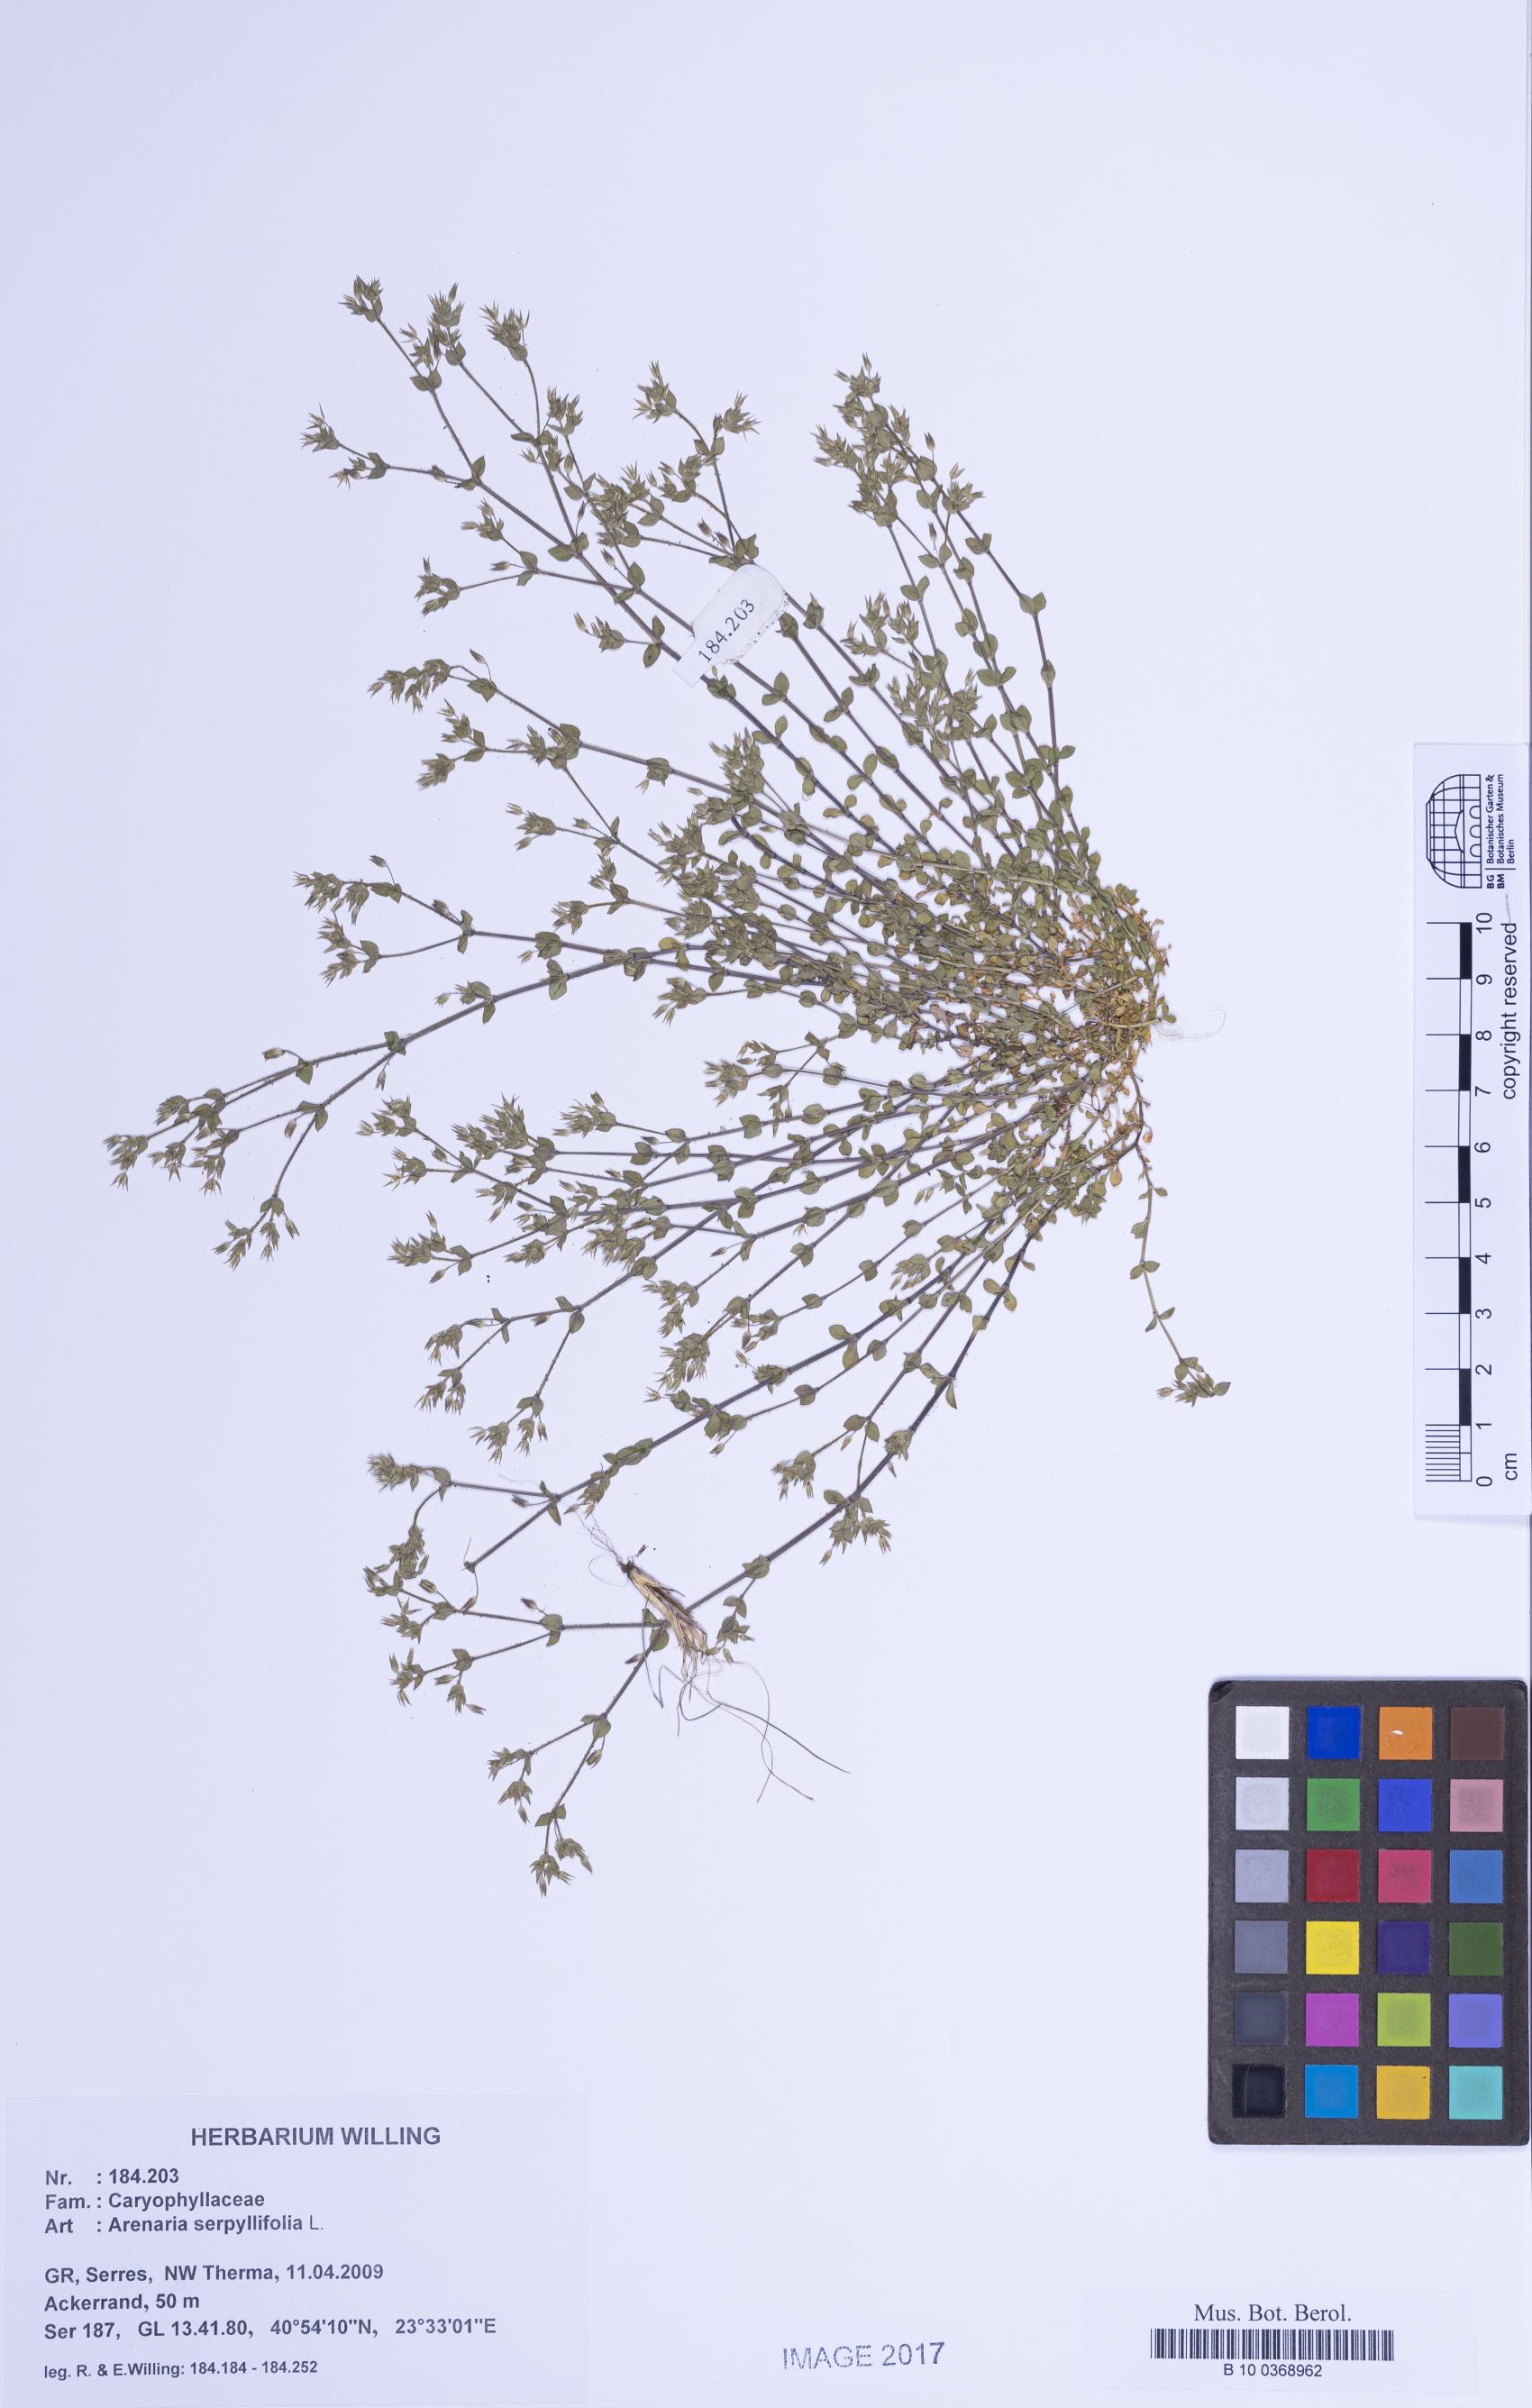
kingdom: Plantae
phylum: Tracheophyta
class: Magnoliopsida
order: Caryophyllales
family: Caryophyllaceae
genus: Arenaria
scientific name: Arenaria serpyllifolia
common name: Thyme-leaved sandwort
